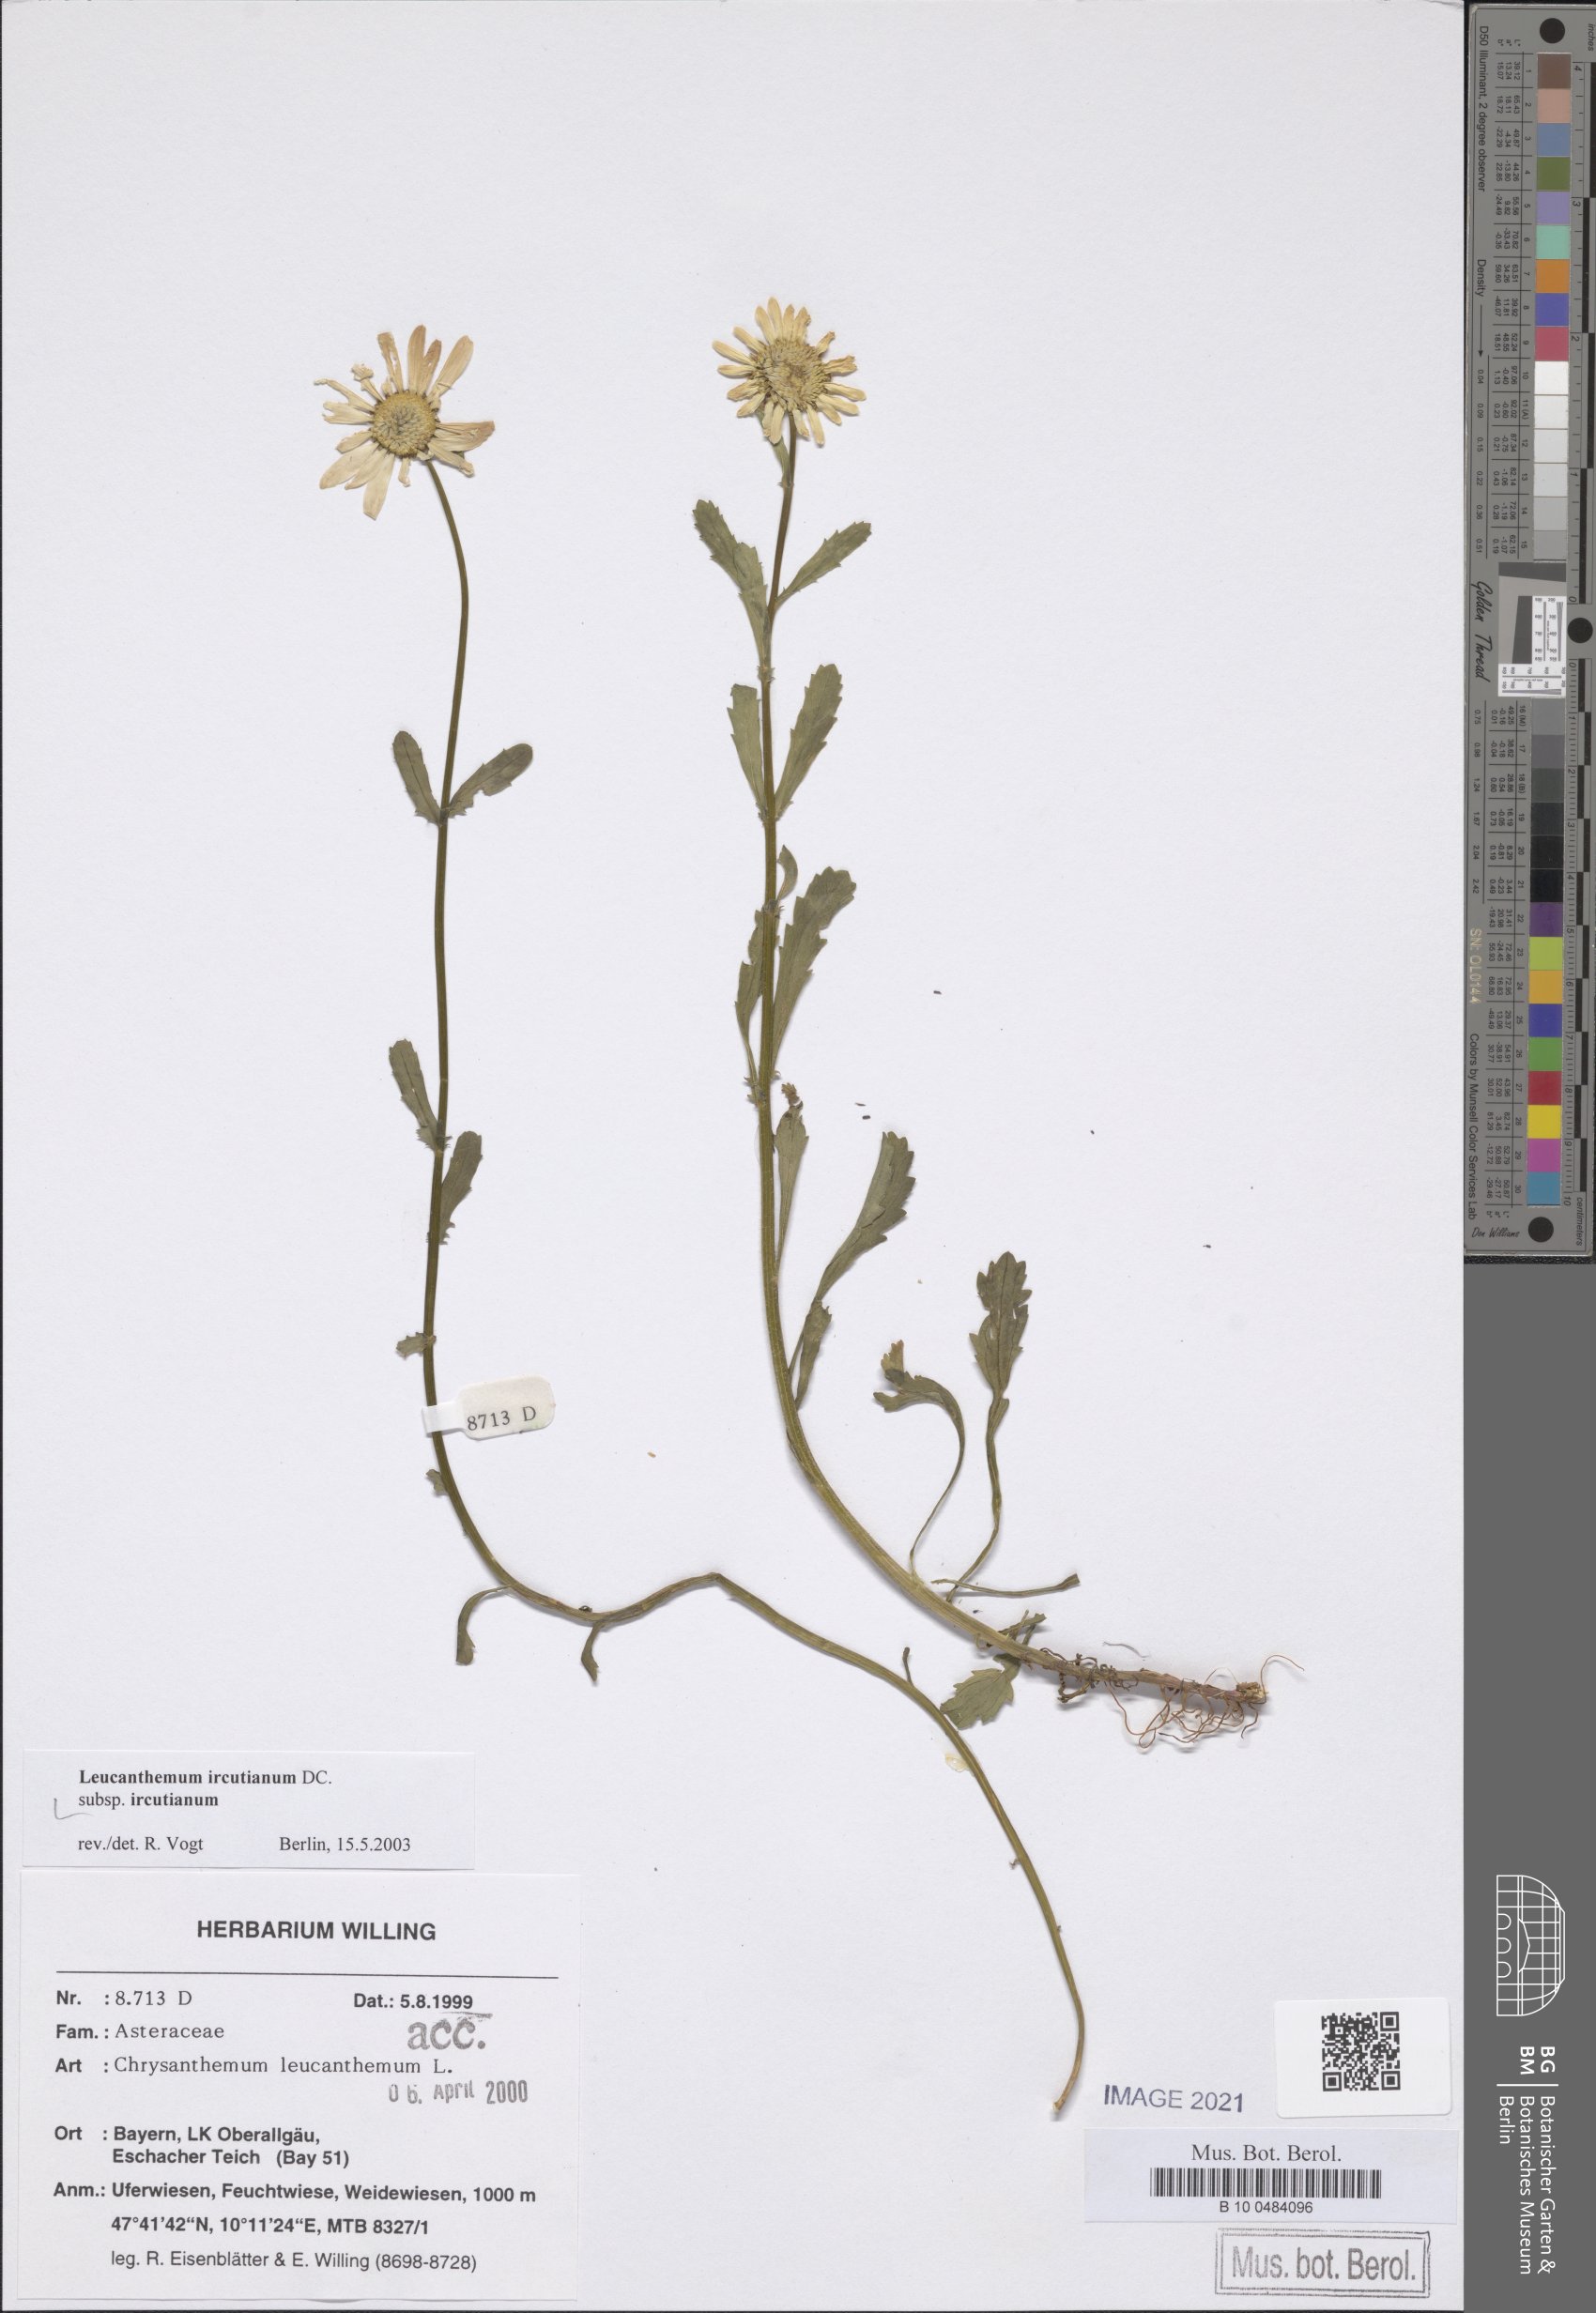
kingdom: Plantae
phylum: Tracheophyta
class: Magnoliopsida
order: Asterales
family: Asteraceae
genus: Leucanthemum
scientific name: Leucanthemum ircutianum
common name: Daisy
